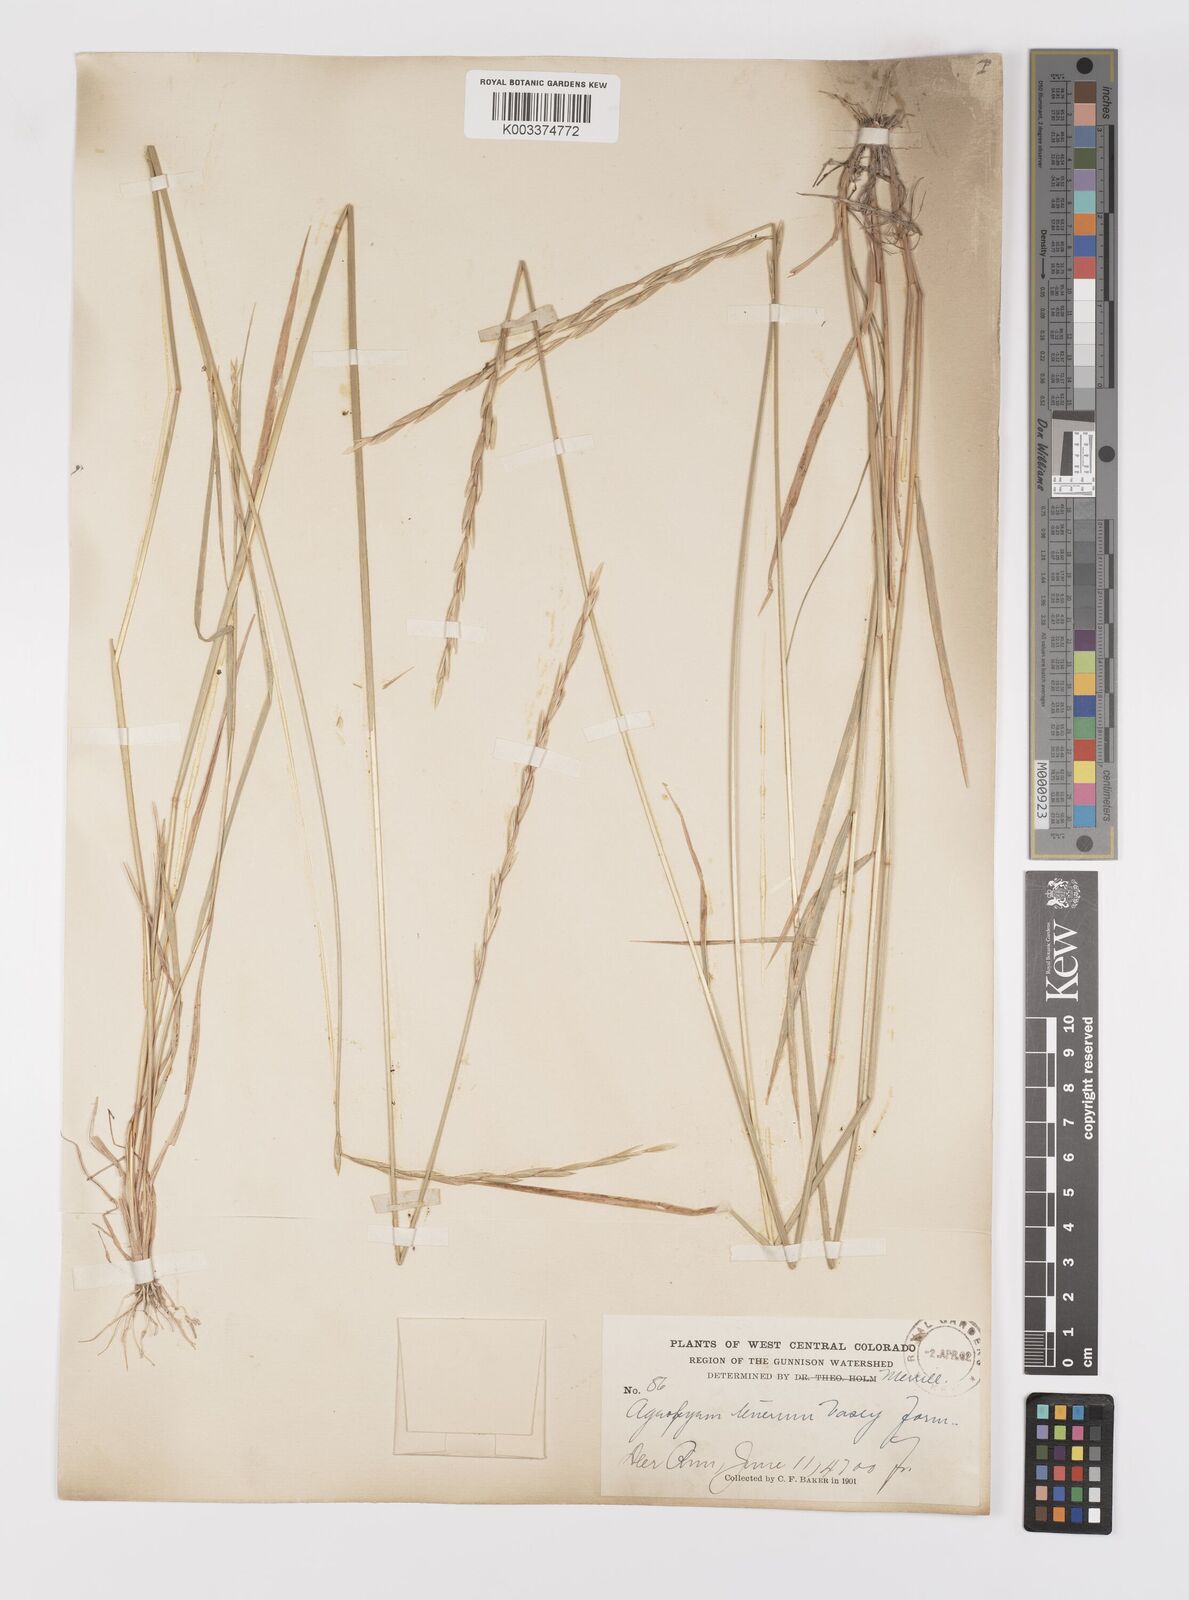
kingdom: Plantae
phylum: Tracheophyta
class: Liliopsida
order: Poales
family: Poaceae
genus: Elymus
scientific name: Elymus violaceus
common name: Arctic wheatgrass
